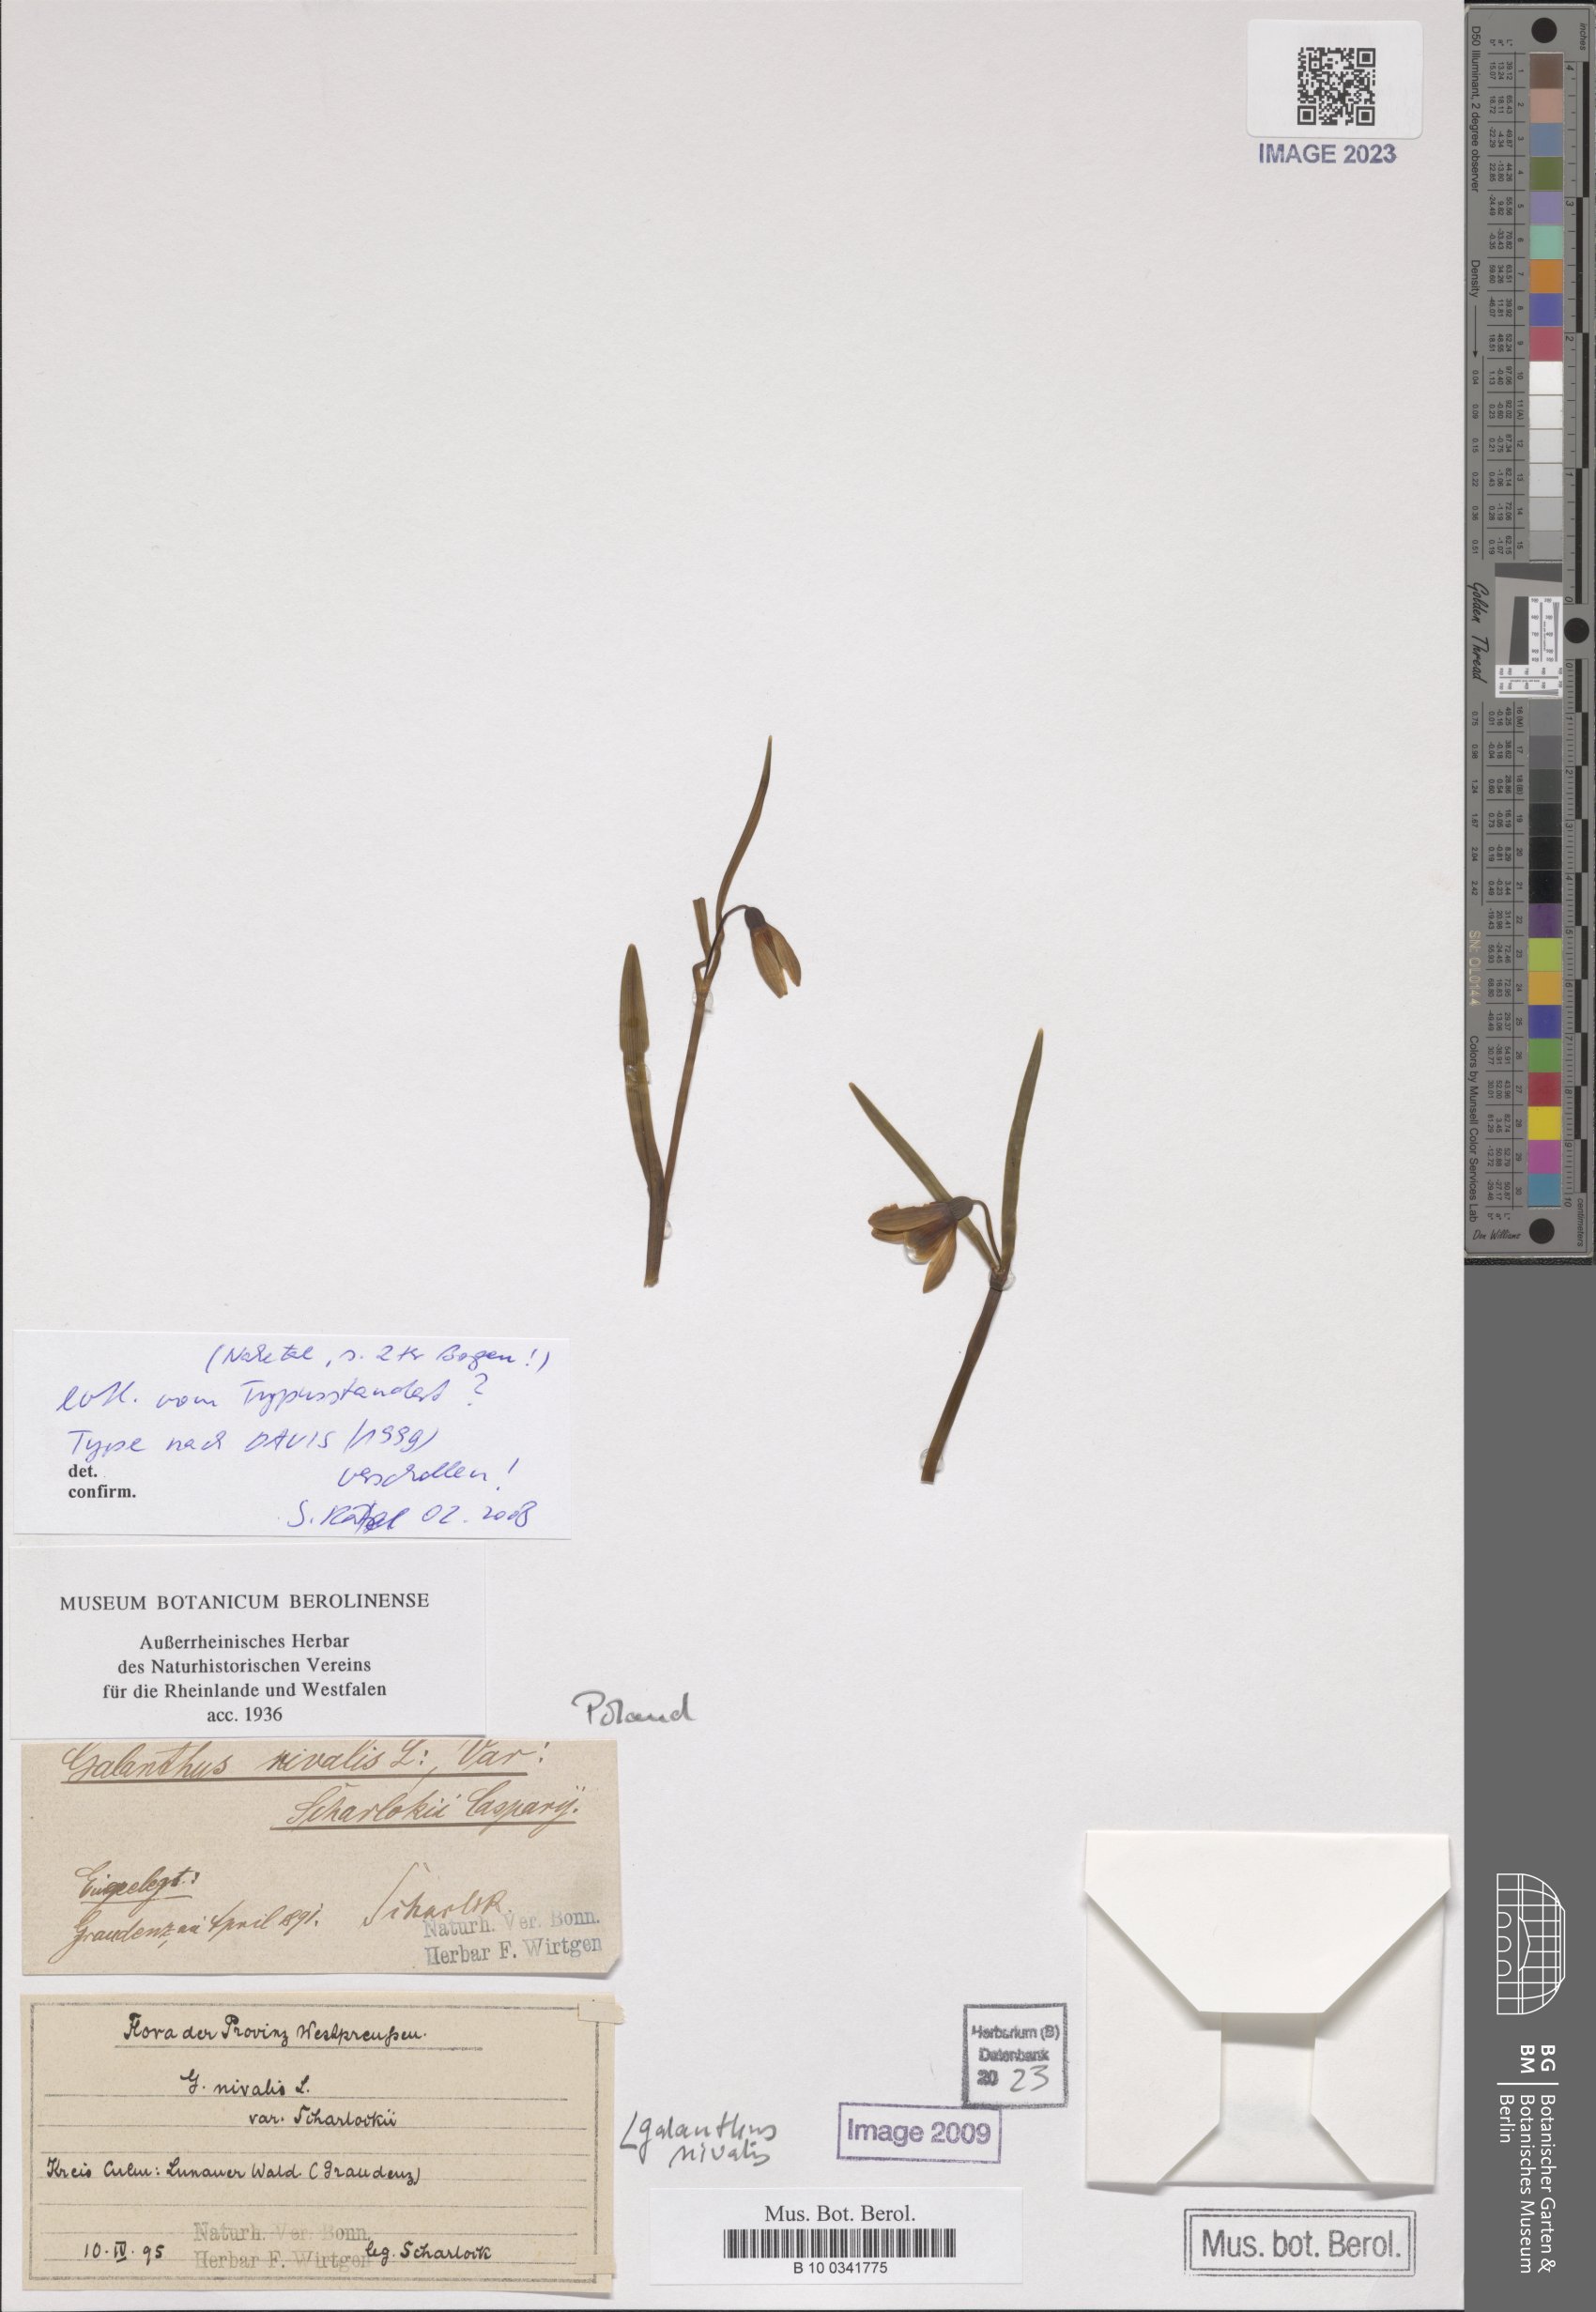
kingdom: Plantae
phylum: Tracheophyta
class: Liliopsida
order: Asparagales
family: Amaryllidaceae
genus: Galanthus
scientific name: Galanthus nivalis
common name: Snowdrop
